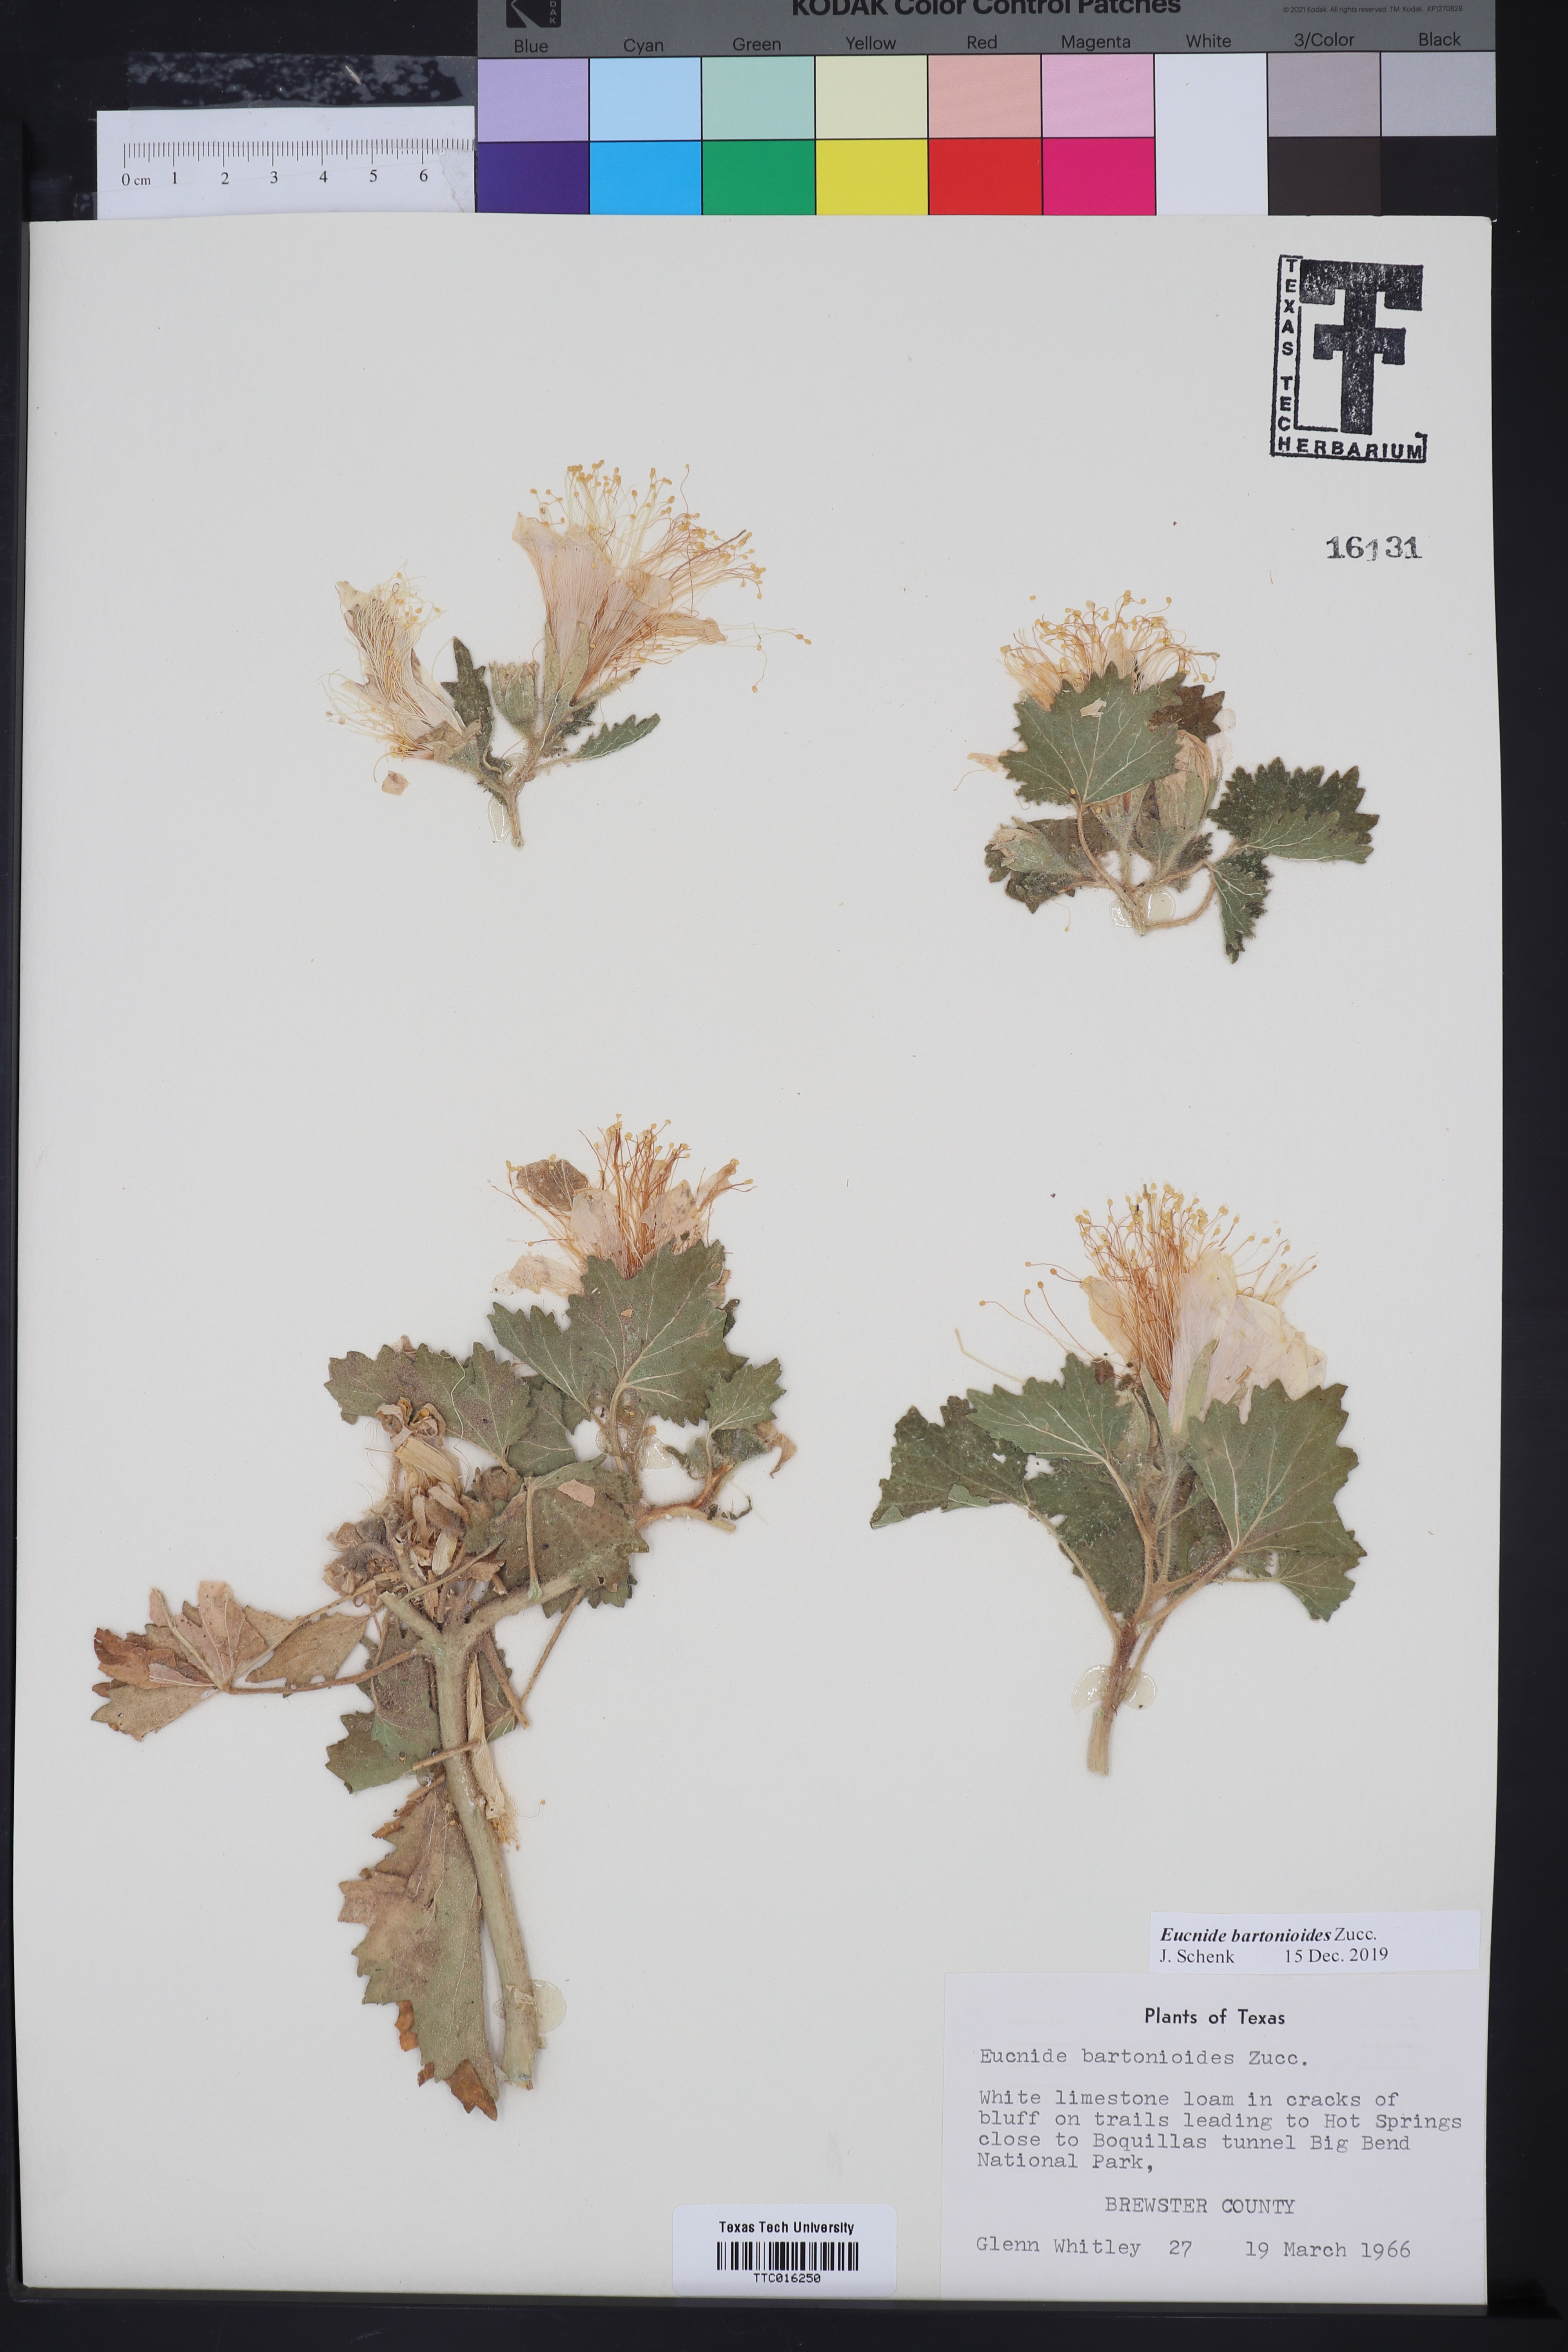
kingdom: Plantae
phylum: Tracheophyta
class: Magnoliopsida
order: Cornales
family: Loasaceae
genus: Eucnide
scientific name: Eucnide bartonioides
